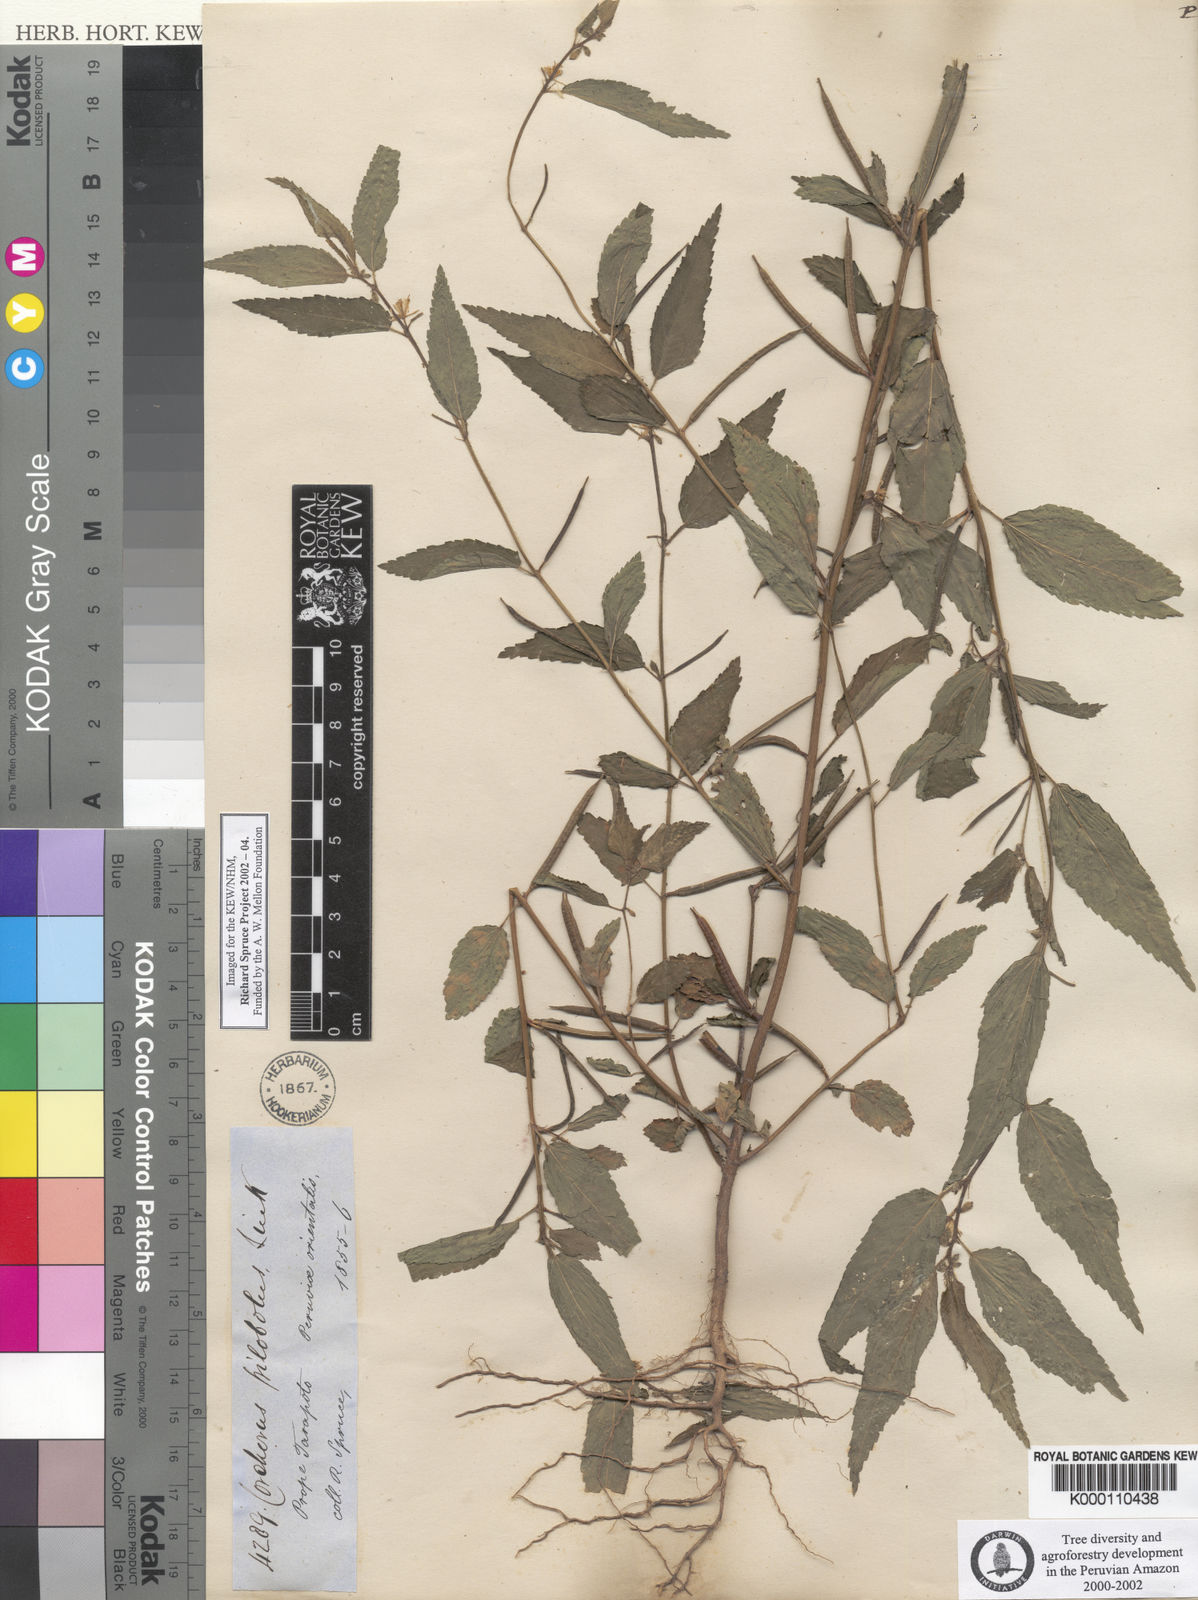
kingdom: Plantae
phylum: Tracheophyta
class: Magnoliopsida
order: Malvales
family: Malvaceae
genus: Corchorus
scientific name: Corchorus orinocensis
